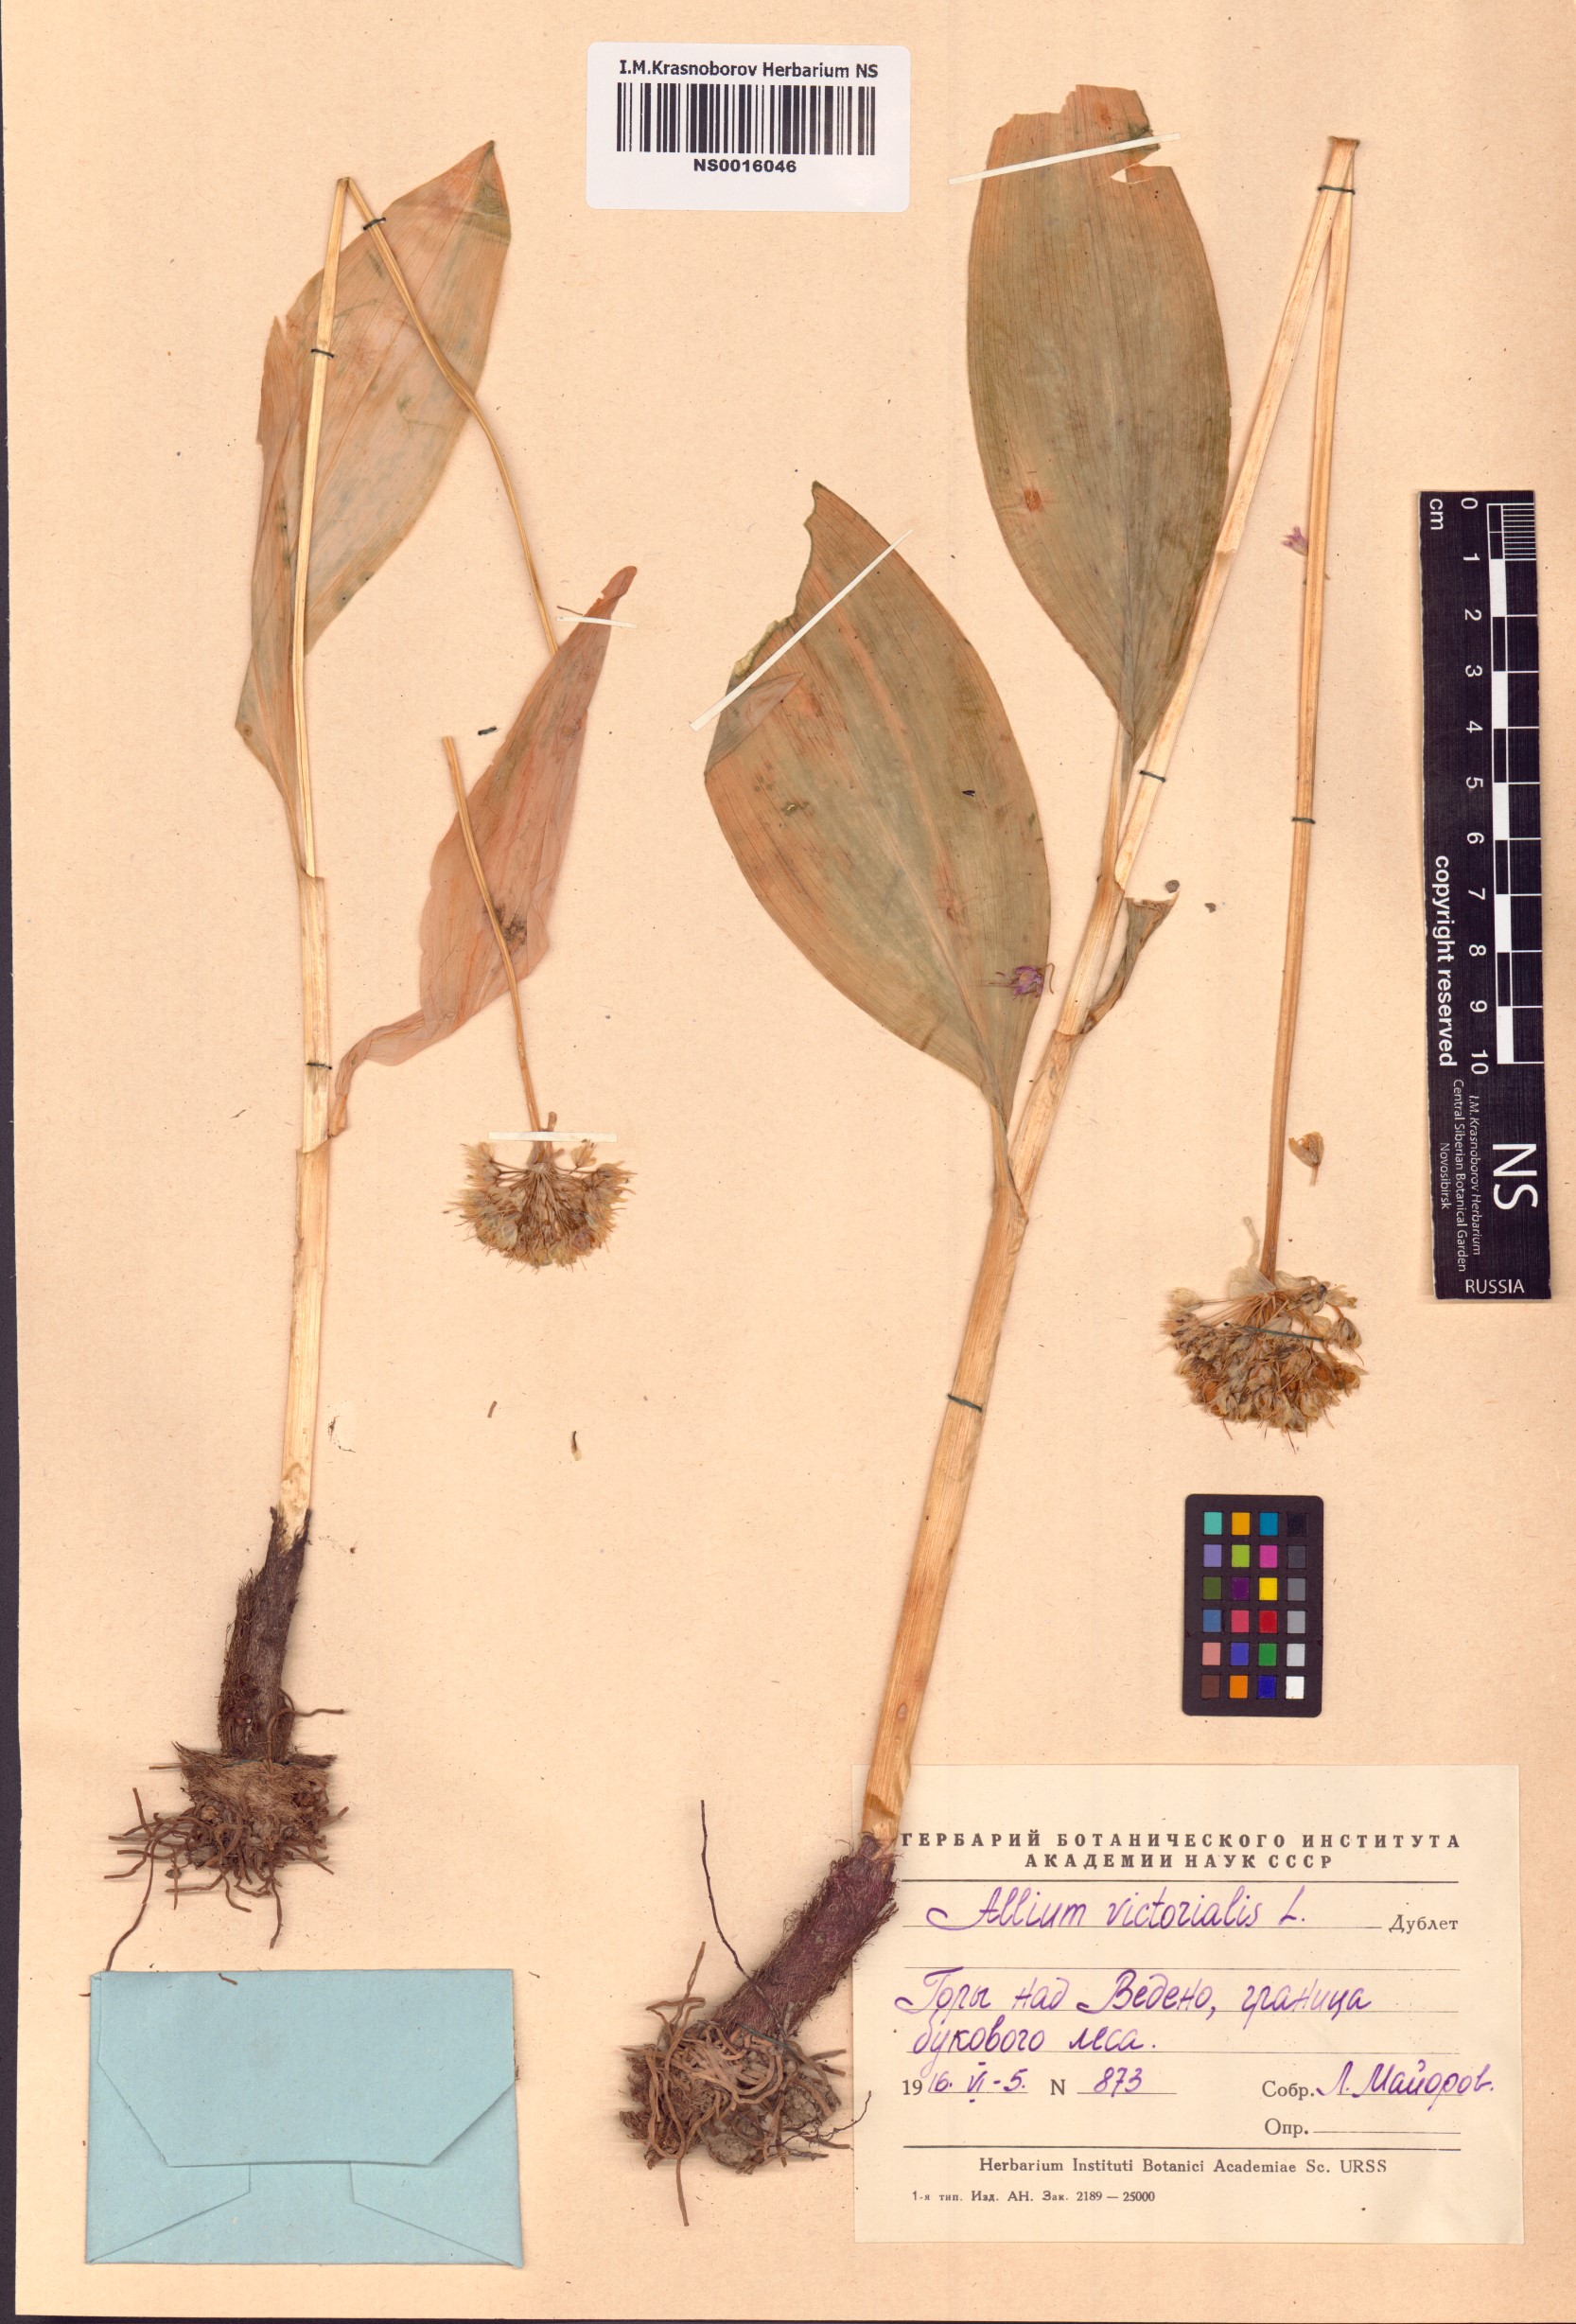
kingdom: Plantae
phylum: Tracheophyta
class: Liliopsida
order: Asparagales
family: Amaryllidaceae
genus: Allium
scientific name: Allium victorialis
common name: Alpine leek
